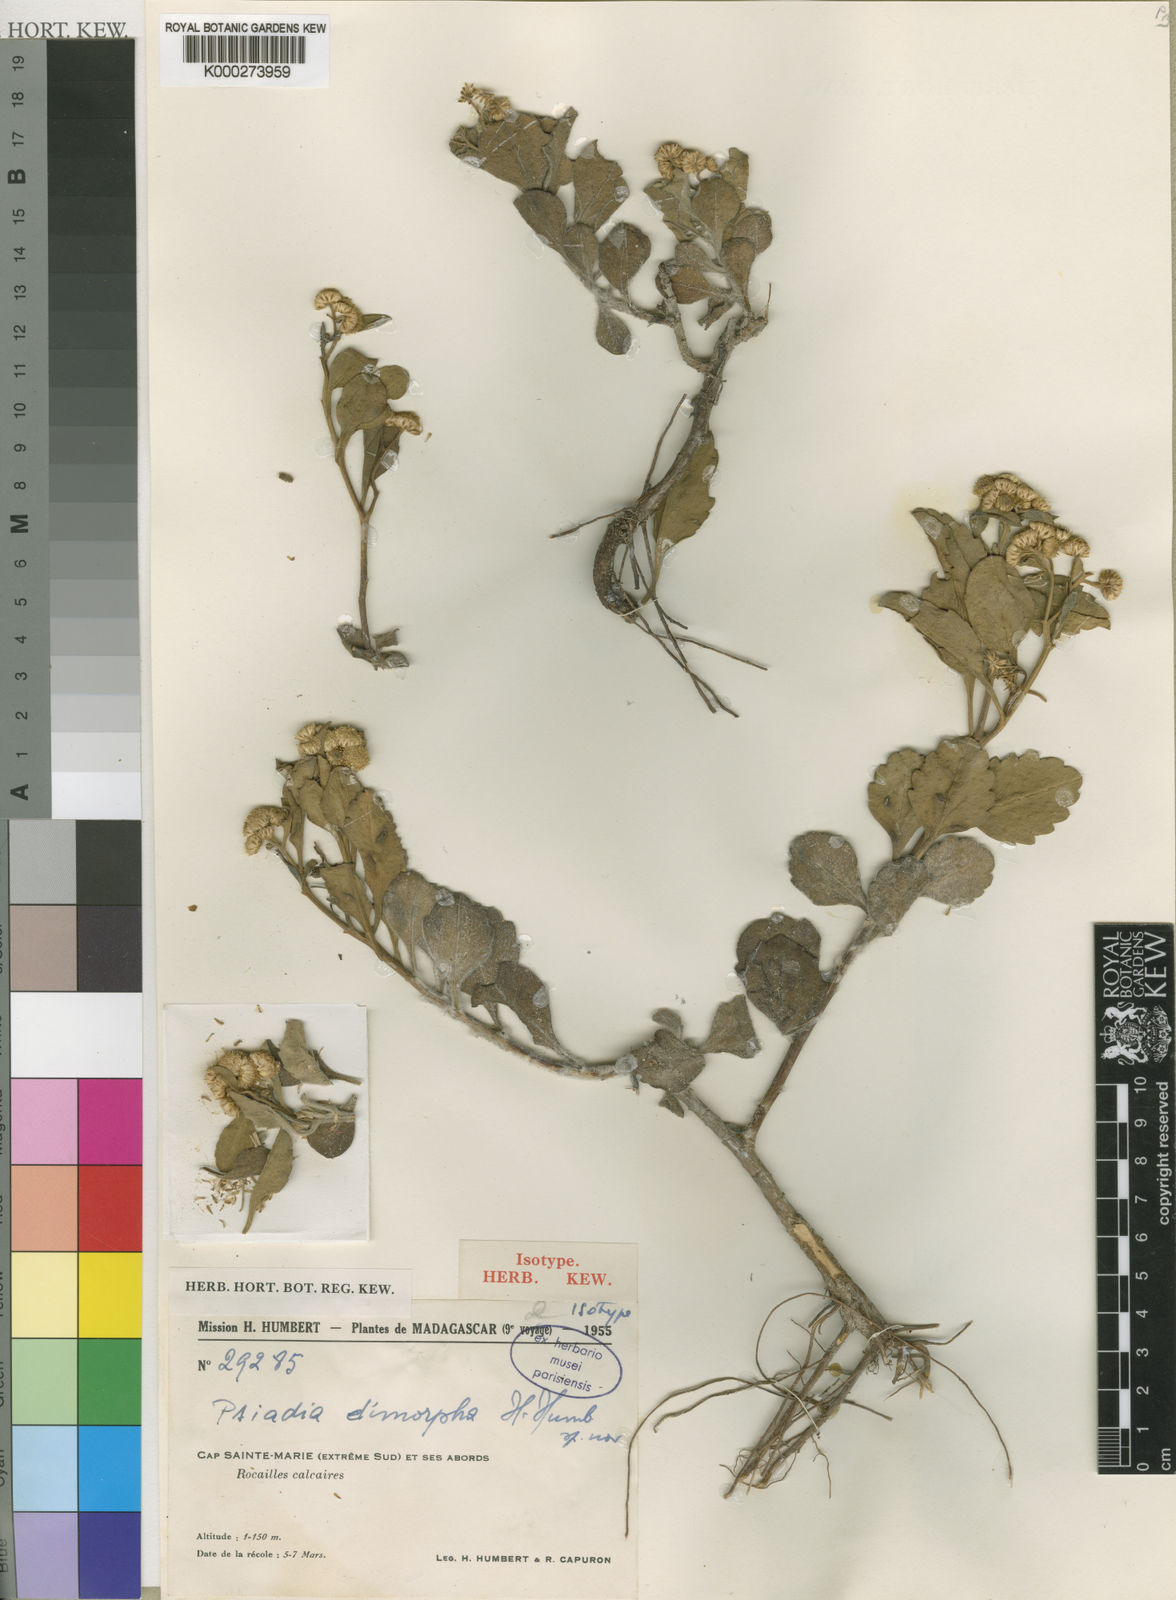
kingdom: Plantae
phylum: Tracheophyta
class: Magnoliopsida
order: Asterales
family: Asteraceae
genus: Psiadia
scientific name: Psiadia dimorpha
